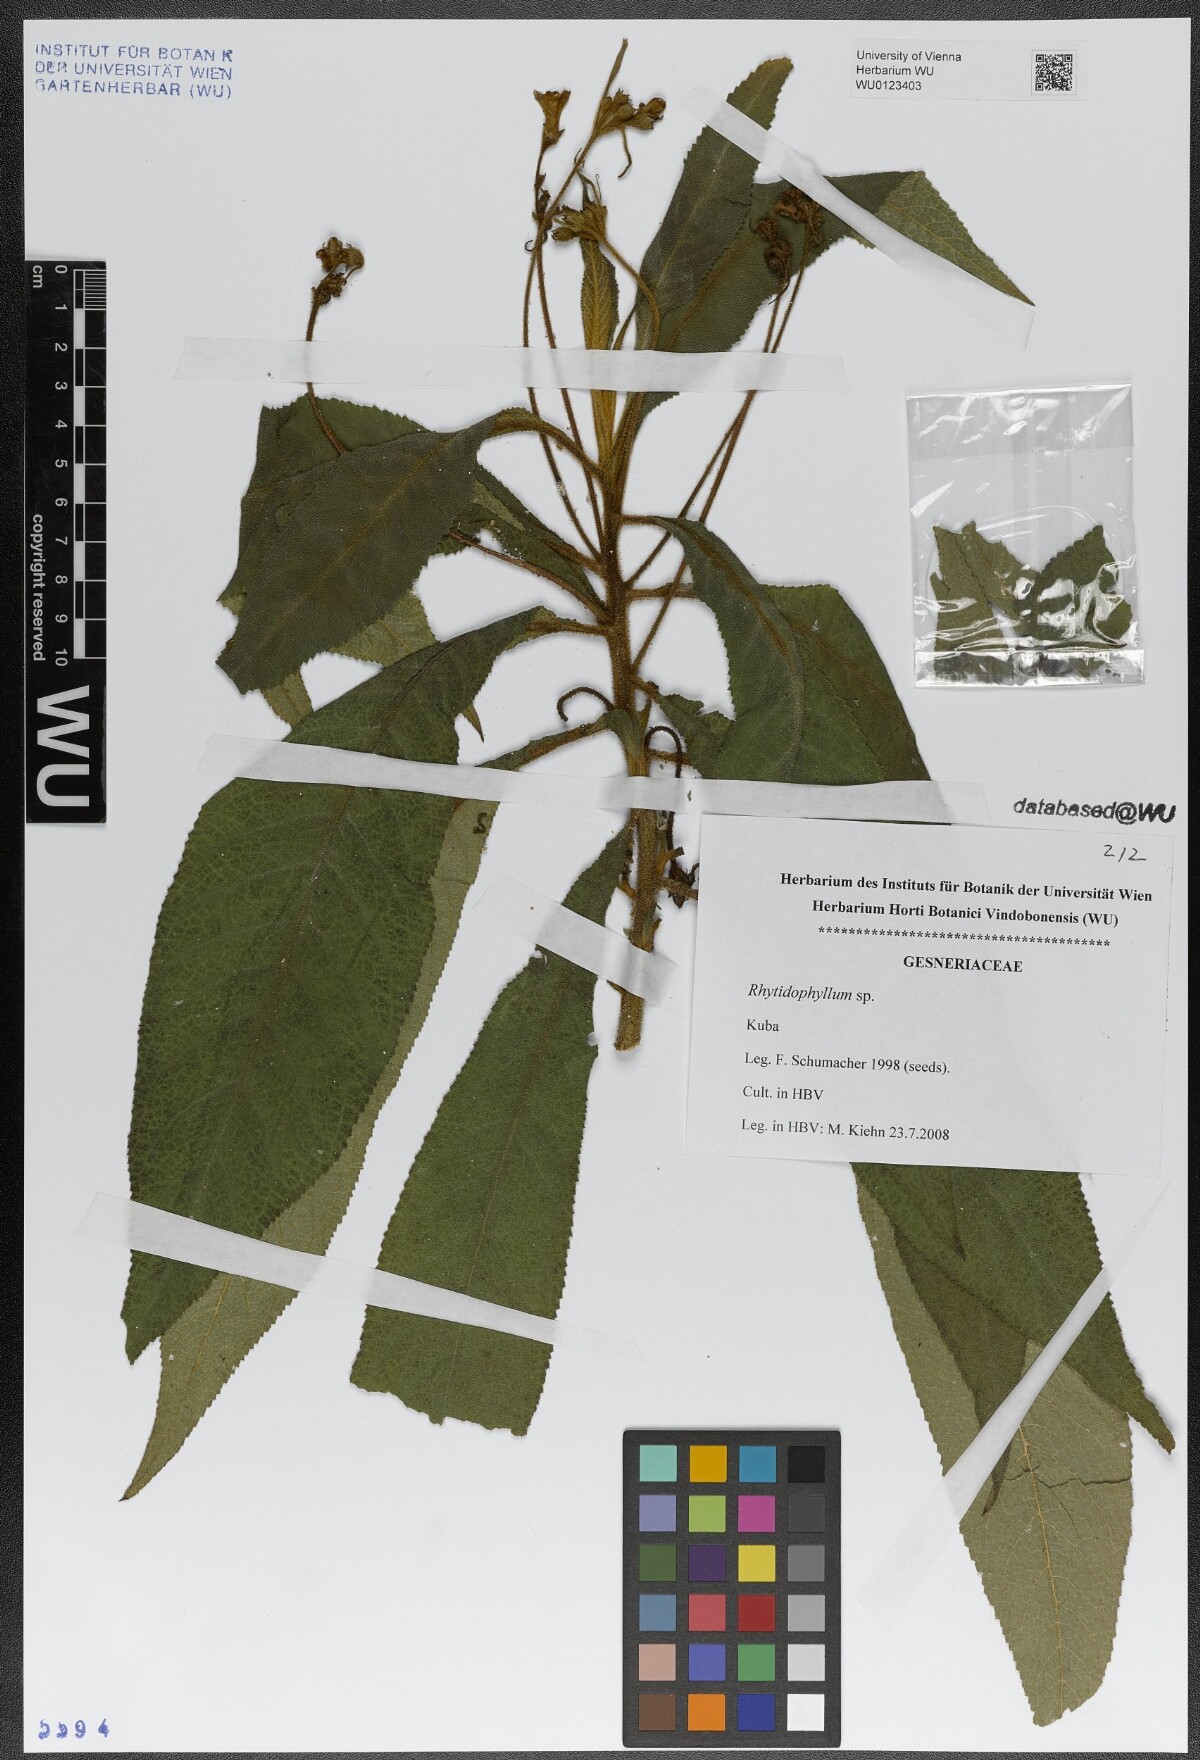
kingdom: Plantae
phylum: Tracheophyta
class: Magnoliopsida
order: Lamiales
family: Gesneriaceae
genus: Rhytidophyllum
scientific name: Rhytidophyllum
